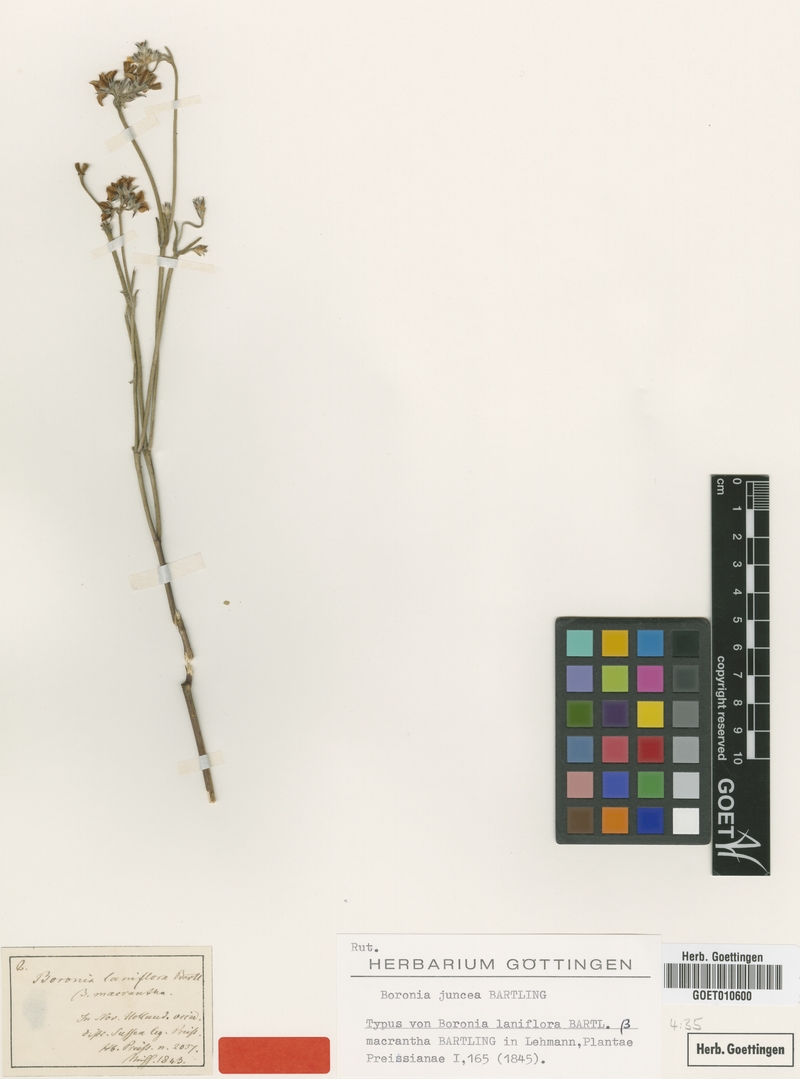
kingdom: Plantae
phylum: Tracheophyta
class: Magnoliopsida
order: Sapindales
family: Rutaceae
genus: Boronia
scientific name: Boronia juncea
